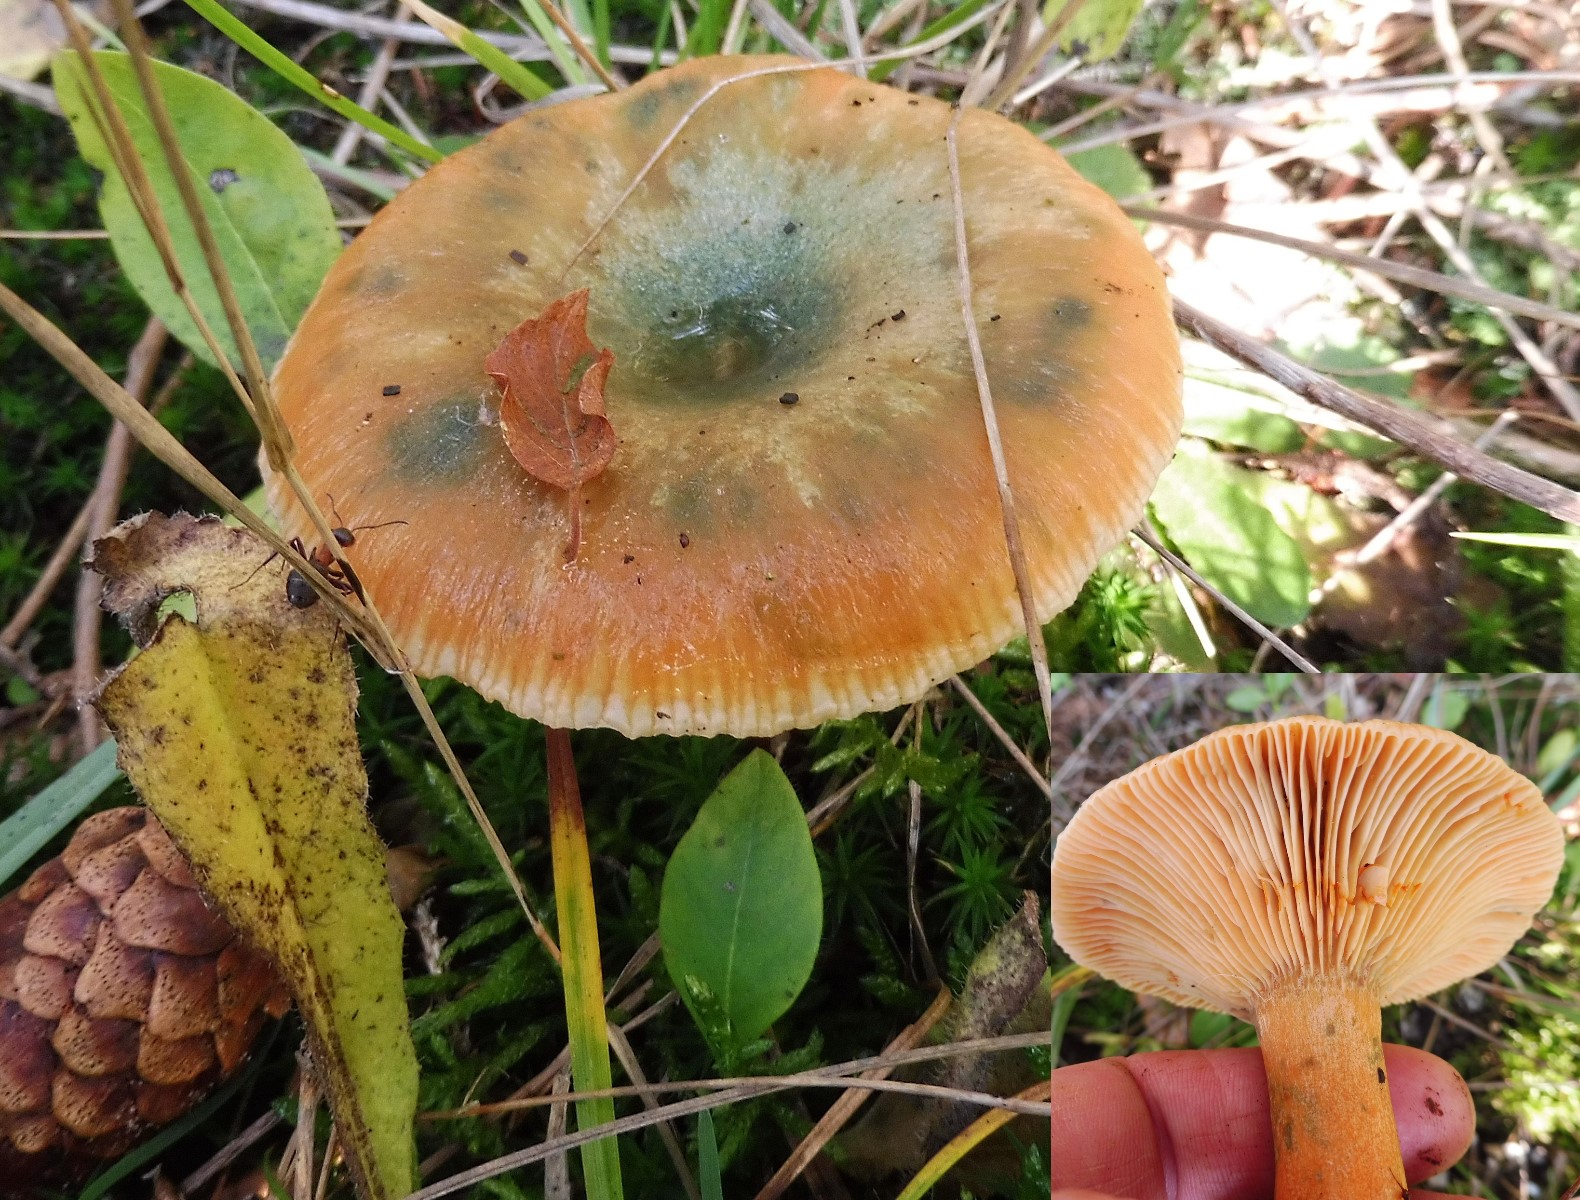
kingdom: Fungi
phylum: Basidiomycota
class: Agaricomycetes
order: Russulales
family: Russulaceae
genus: Lactarius
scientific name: Lactarius deterrimus
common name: gran-mælkehat
